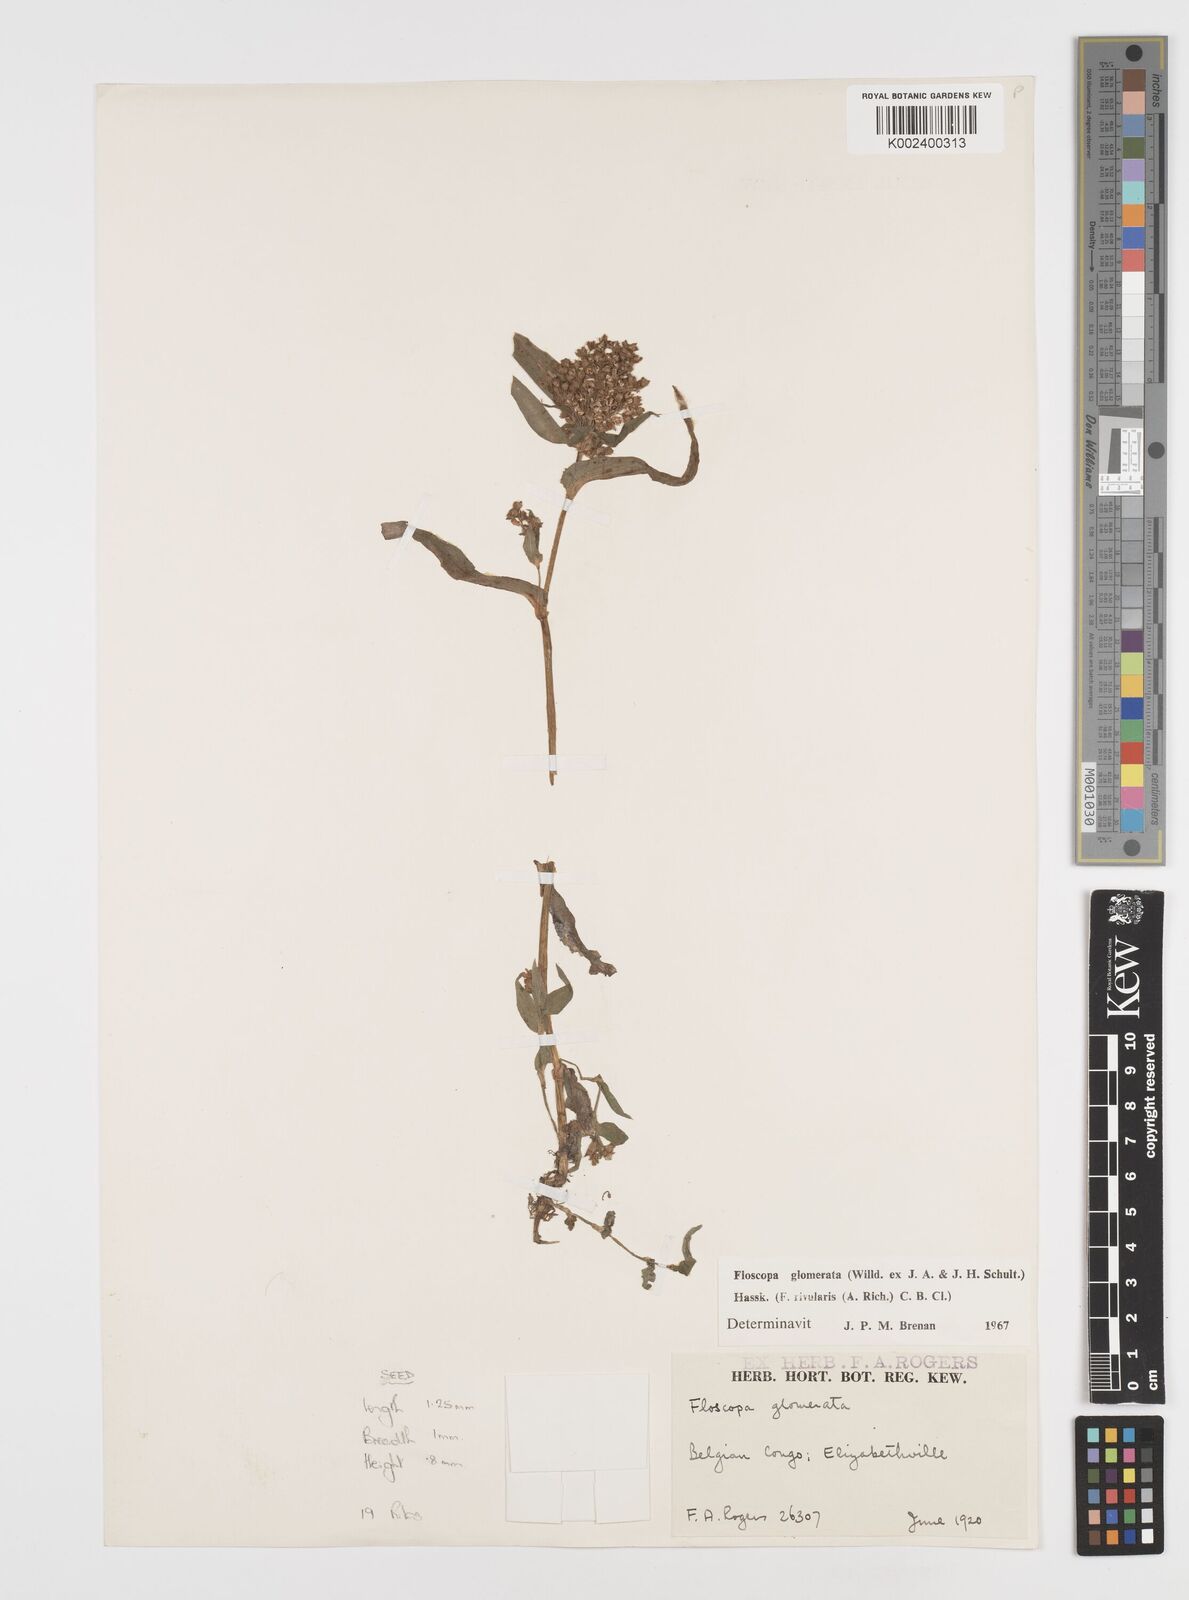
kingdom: Plantae
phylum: Tracheophyta
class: Liliopsida
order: Commelinales
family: Commelinaceae
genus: Floscopa
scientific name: Floscopa glomerata
